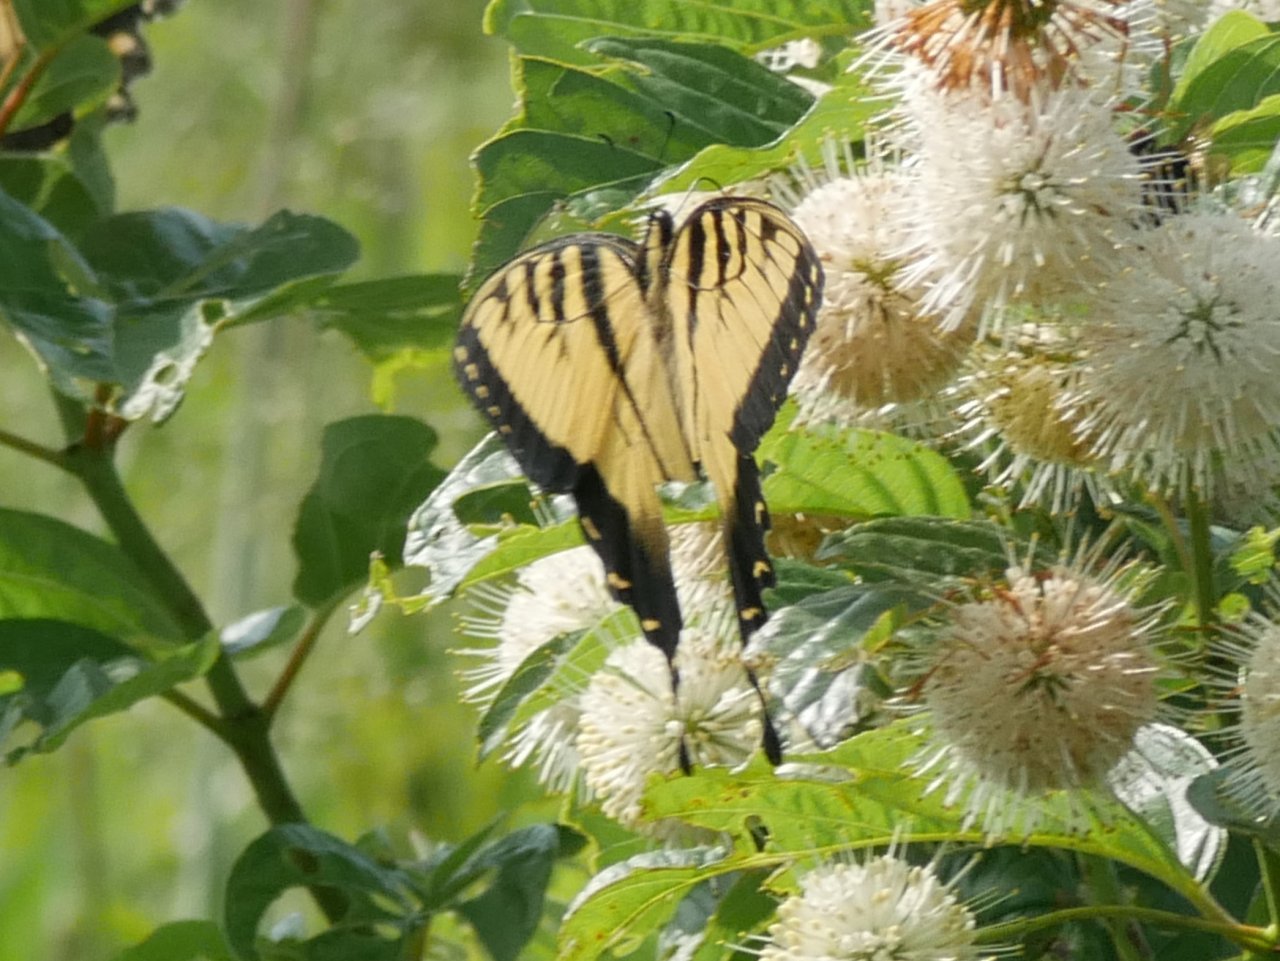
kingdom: Animalia
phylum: Arthropoda
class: Insecta
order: Lepidoptera
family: Papilionidae
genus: Pterourus
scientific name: Pterourus glaucus
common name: Eastern Tiger Swallowtail
